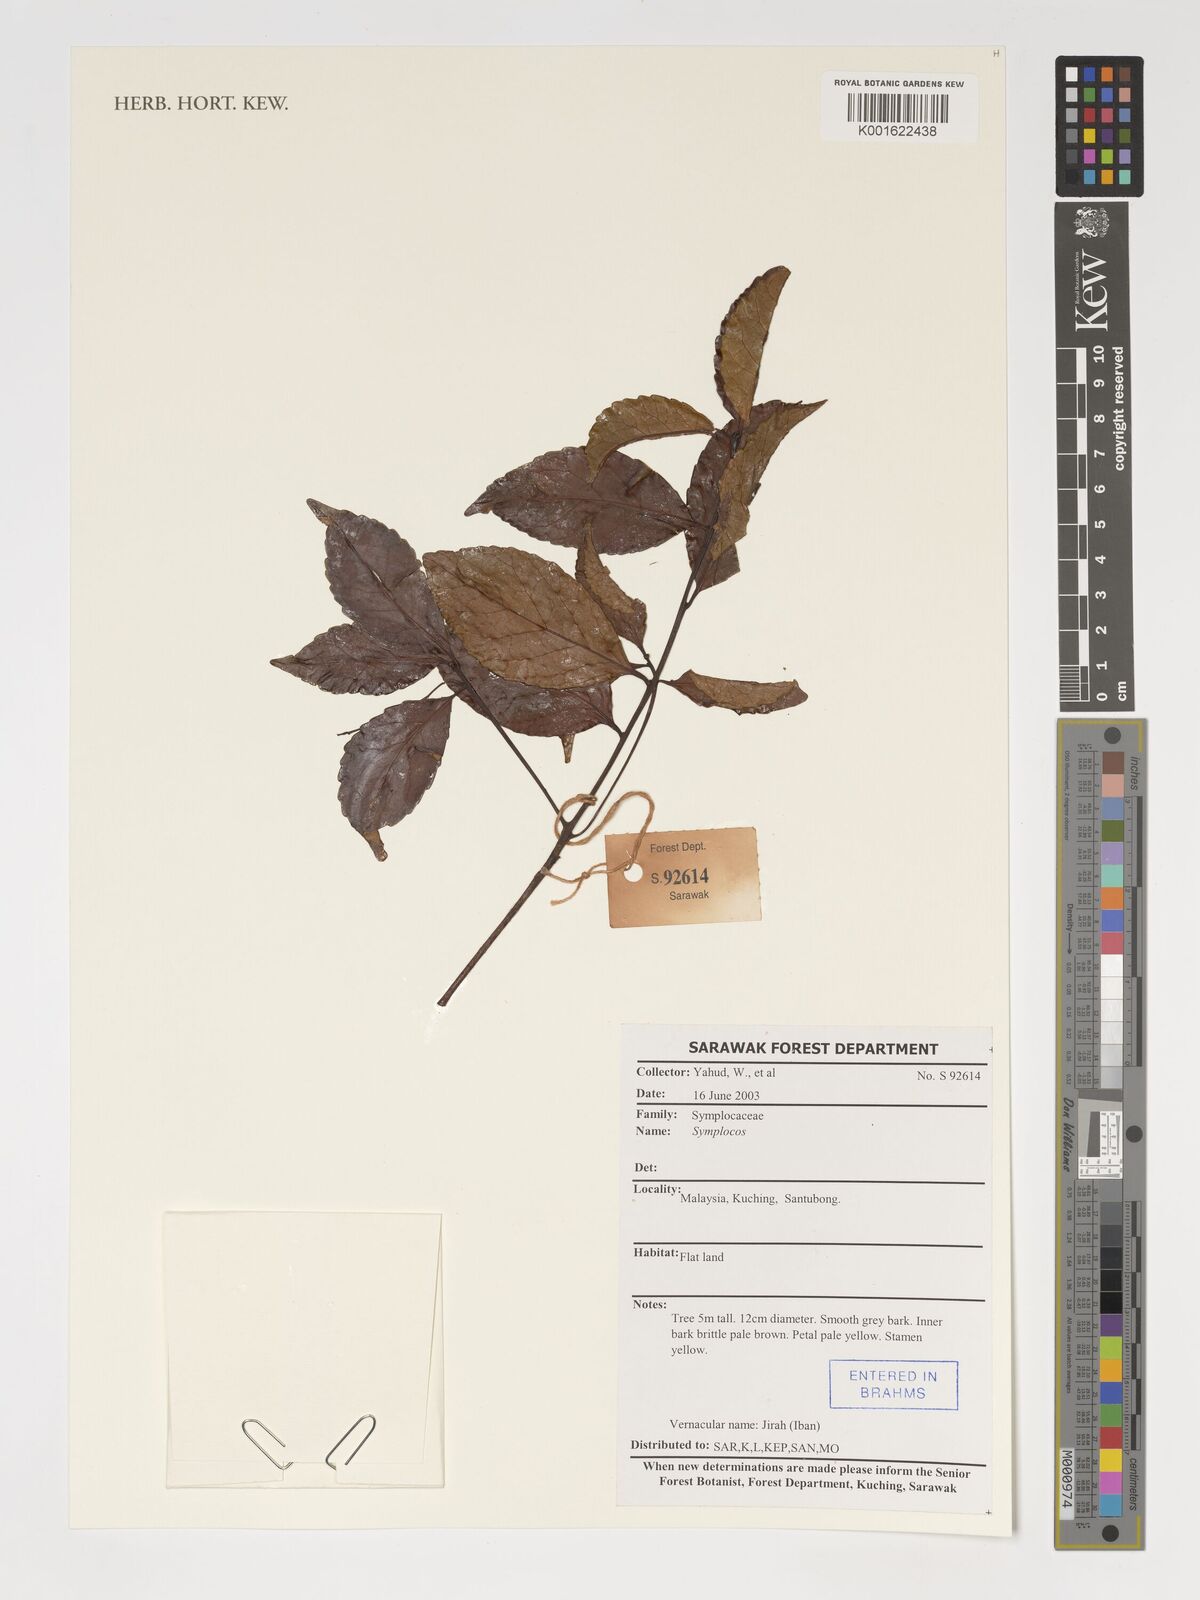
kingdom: Plantae
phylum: Tracheophyta
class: Magnoliopsida
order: Ericales
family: Symplocaceae
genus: Symplocos
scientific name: Symplocos
